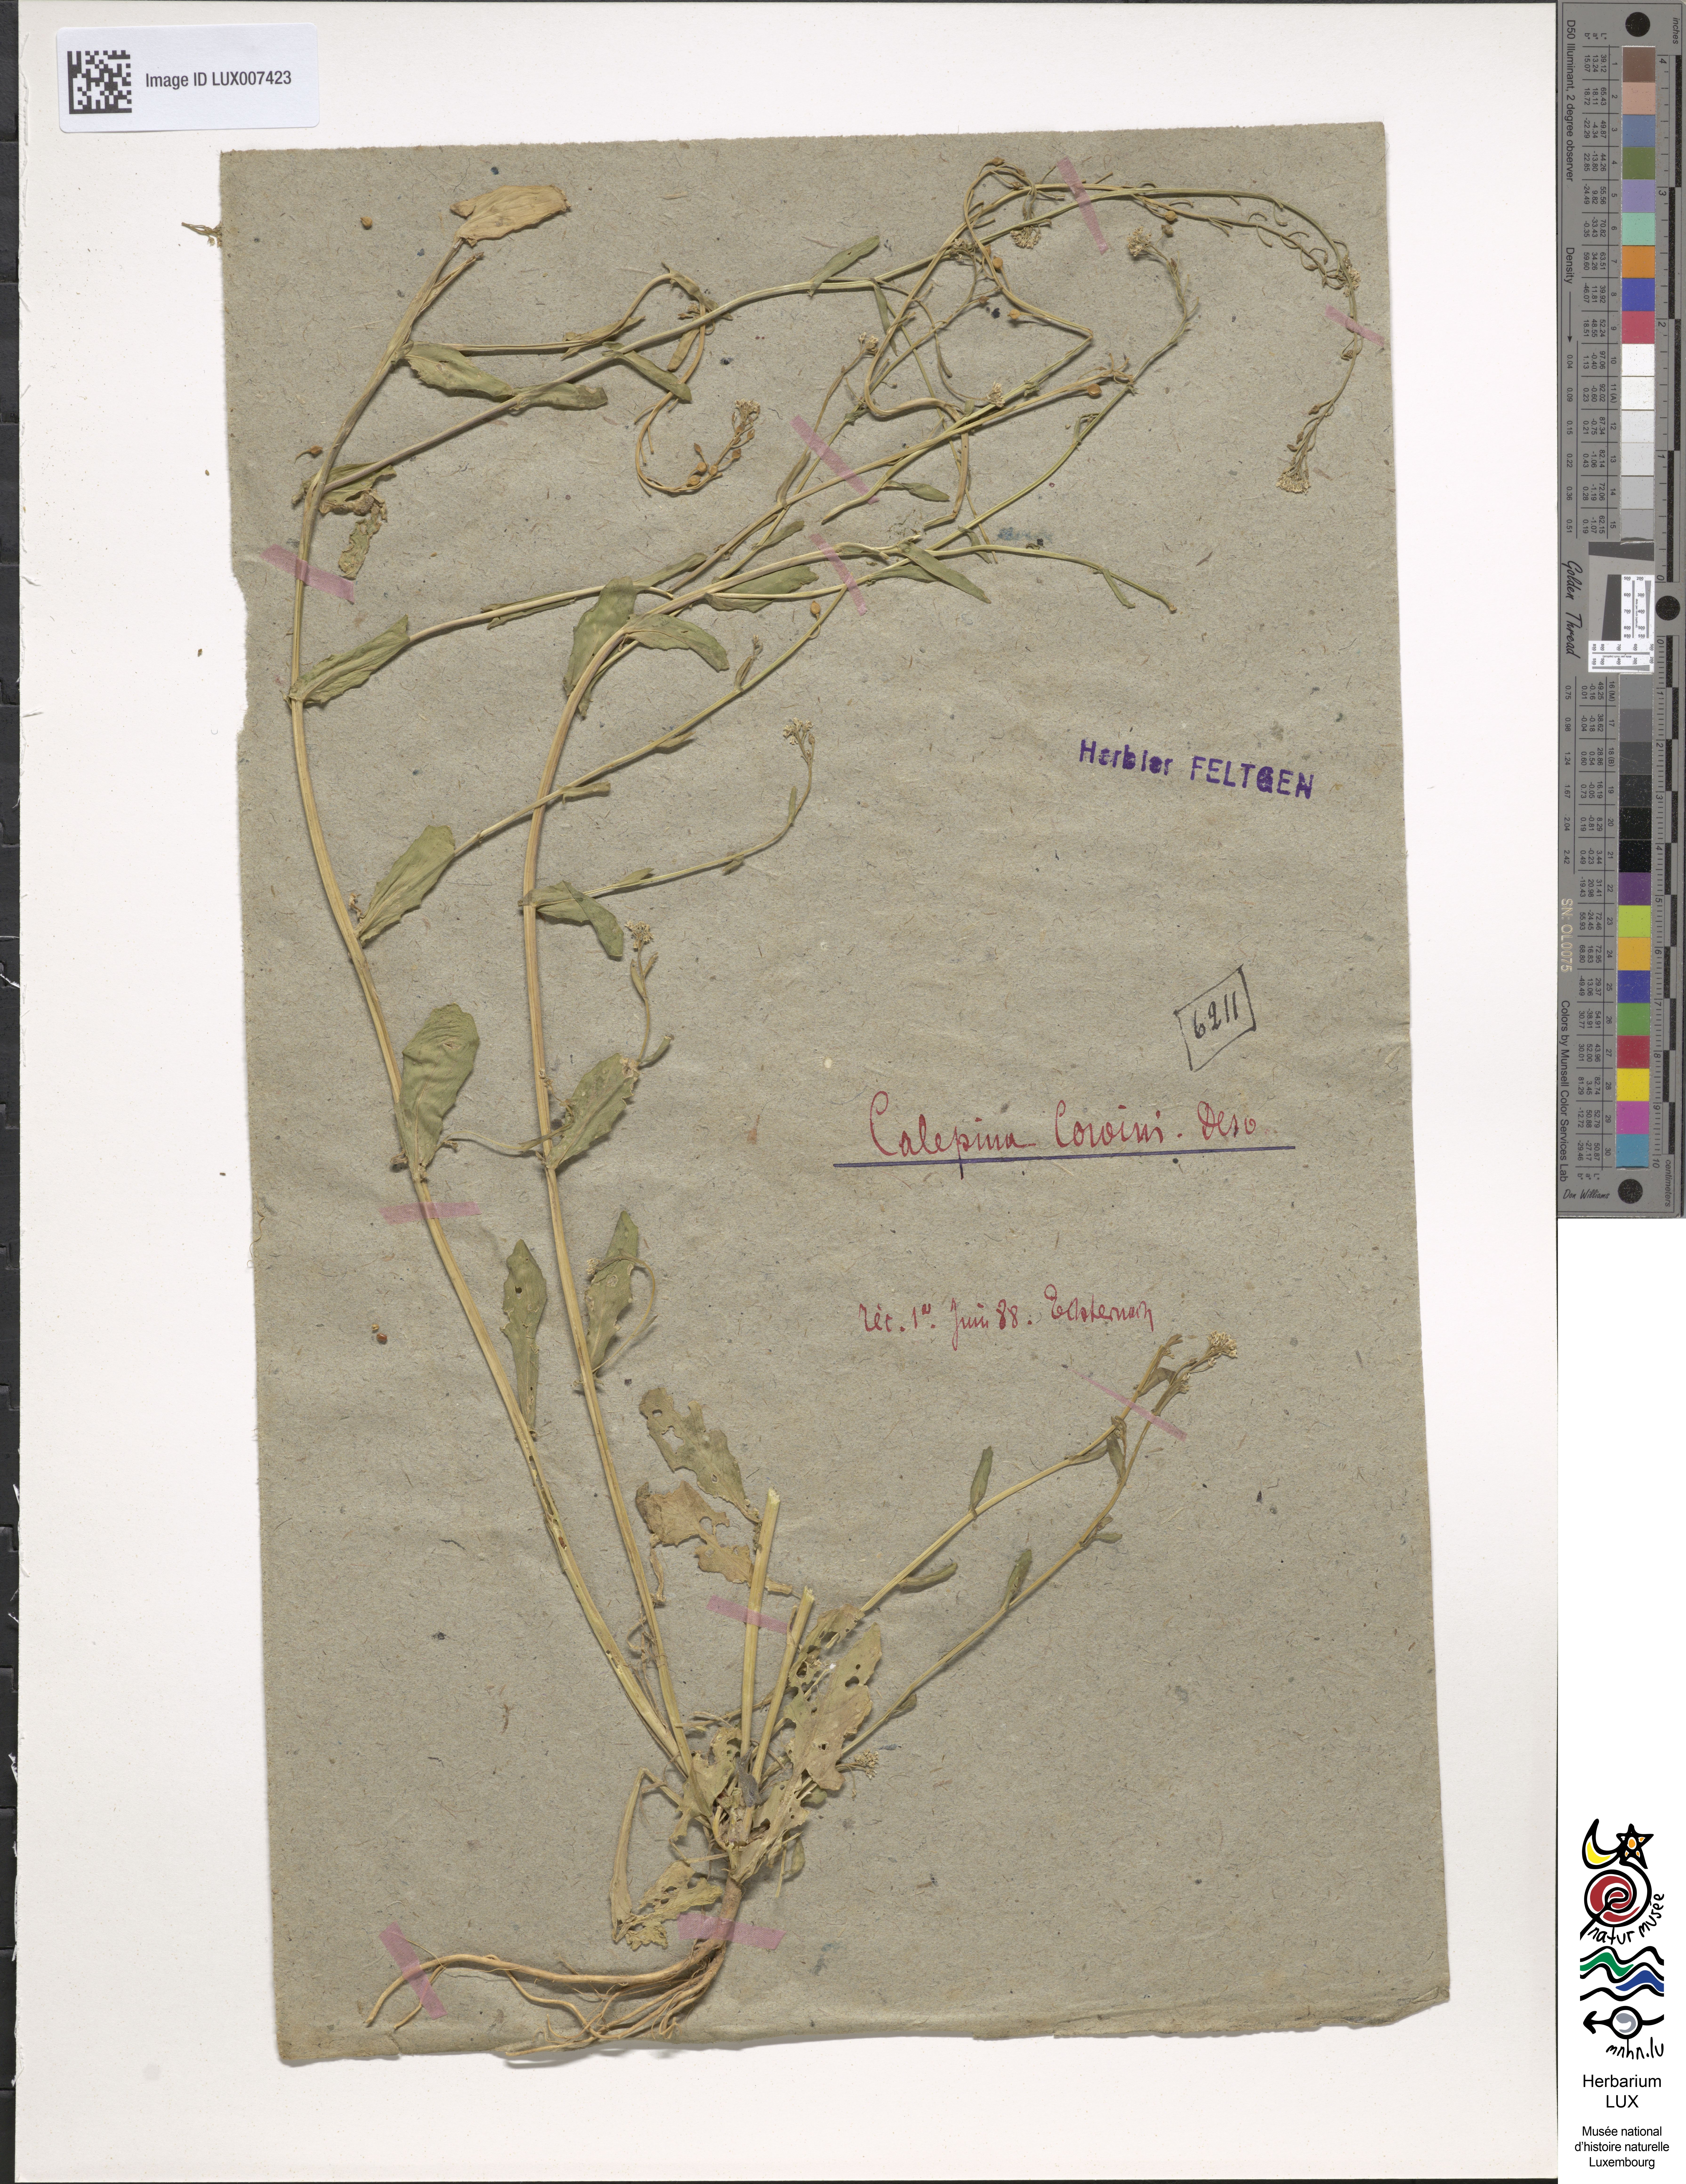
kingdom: Plantae
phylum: Tracheophyta
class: Magnoliopsida
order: Brassicales
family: Brassicaceae
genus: Calepina
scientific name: Calepina irregularis
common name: White ballmustard
